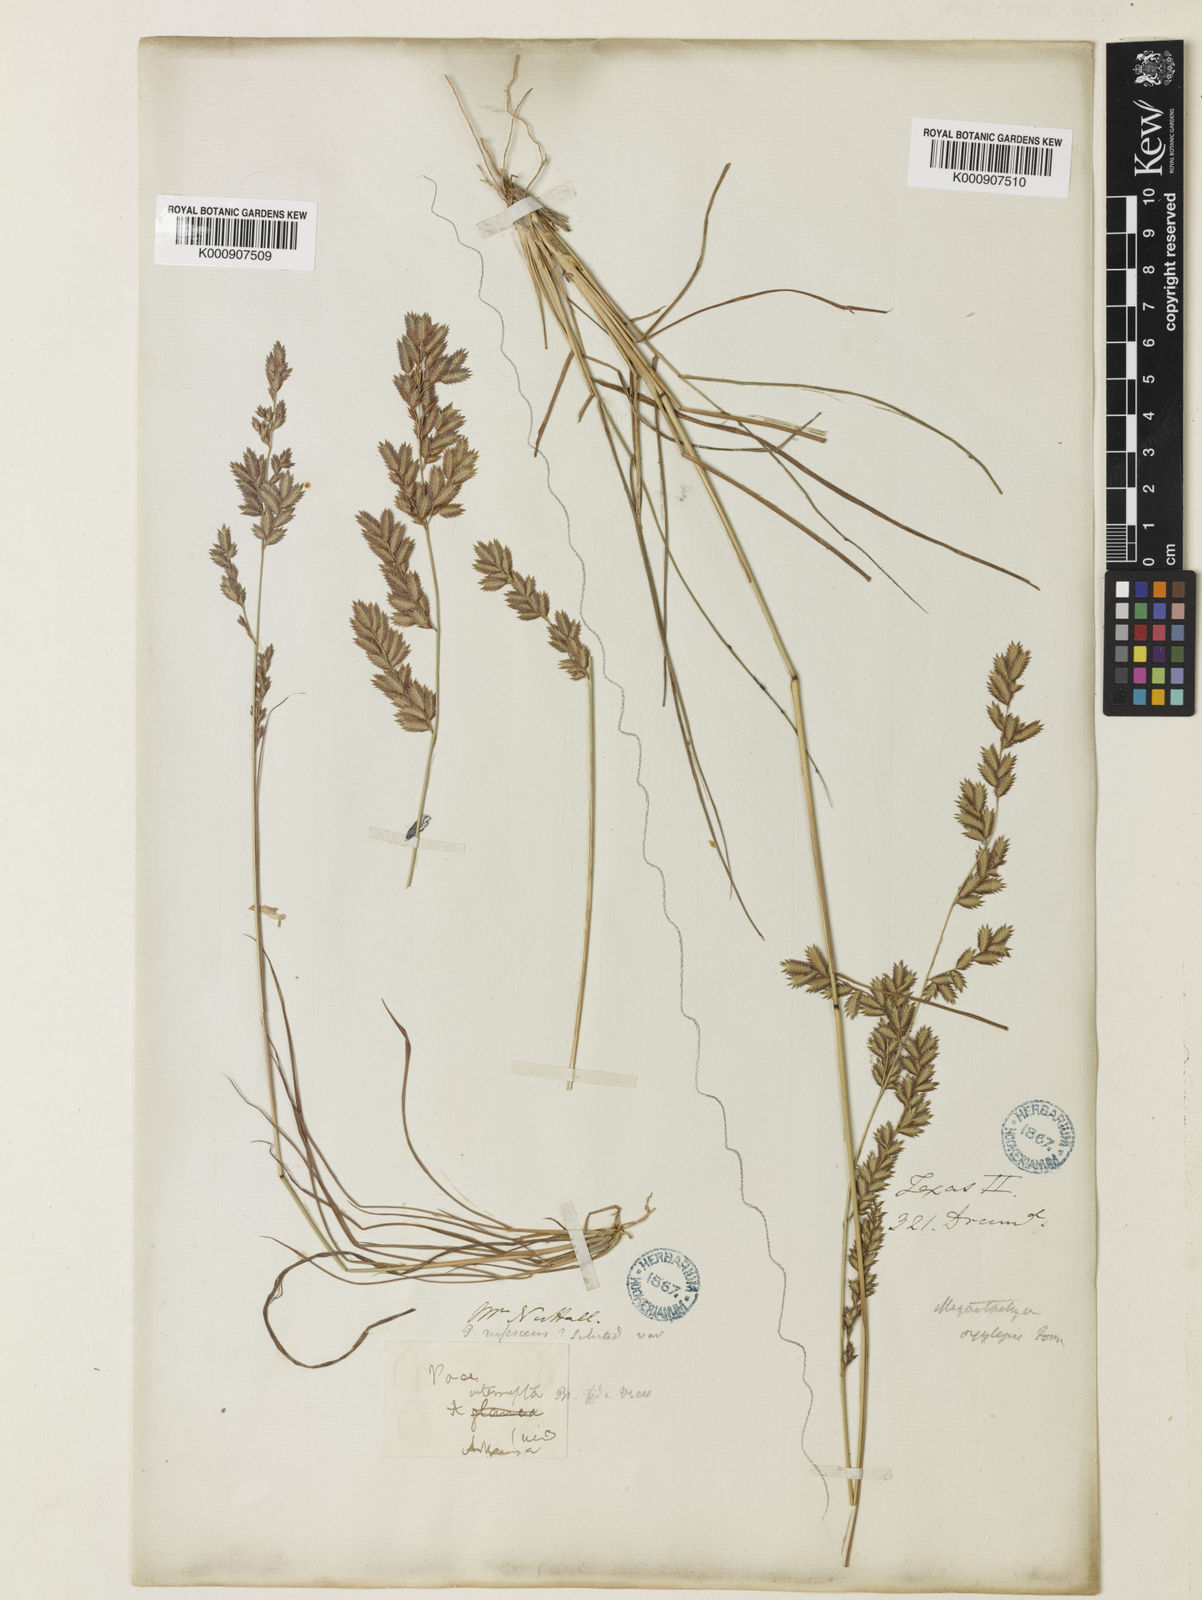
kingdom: Plantae
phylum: Tracheophyta
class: Liliopsida
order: Poales
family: Poaceae
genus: Eragrostis
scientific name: Eragrostis secundiflora
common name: Red love grass
